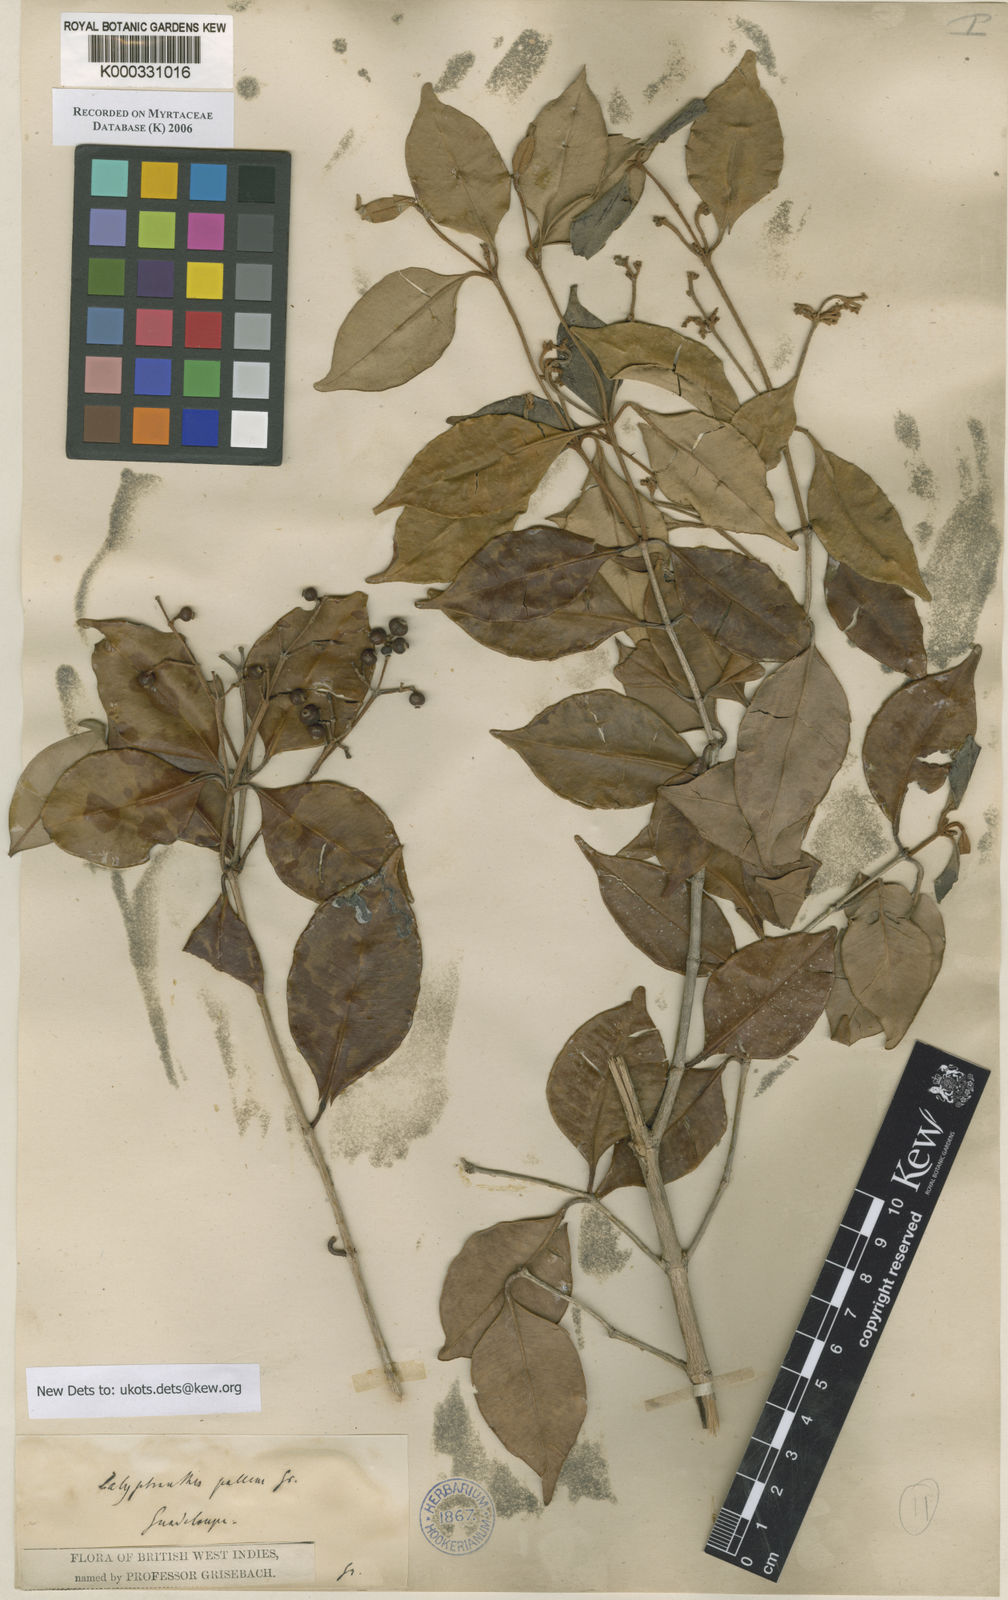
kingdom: Plantae
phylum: Tracheophyta
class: Magnoliopsida
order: Myrtales
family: Myrtaceae
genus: Myrcia
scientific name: Myrcia neopallens
